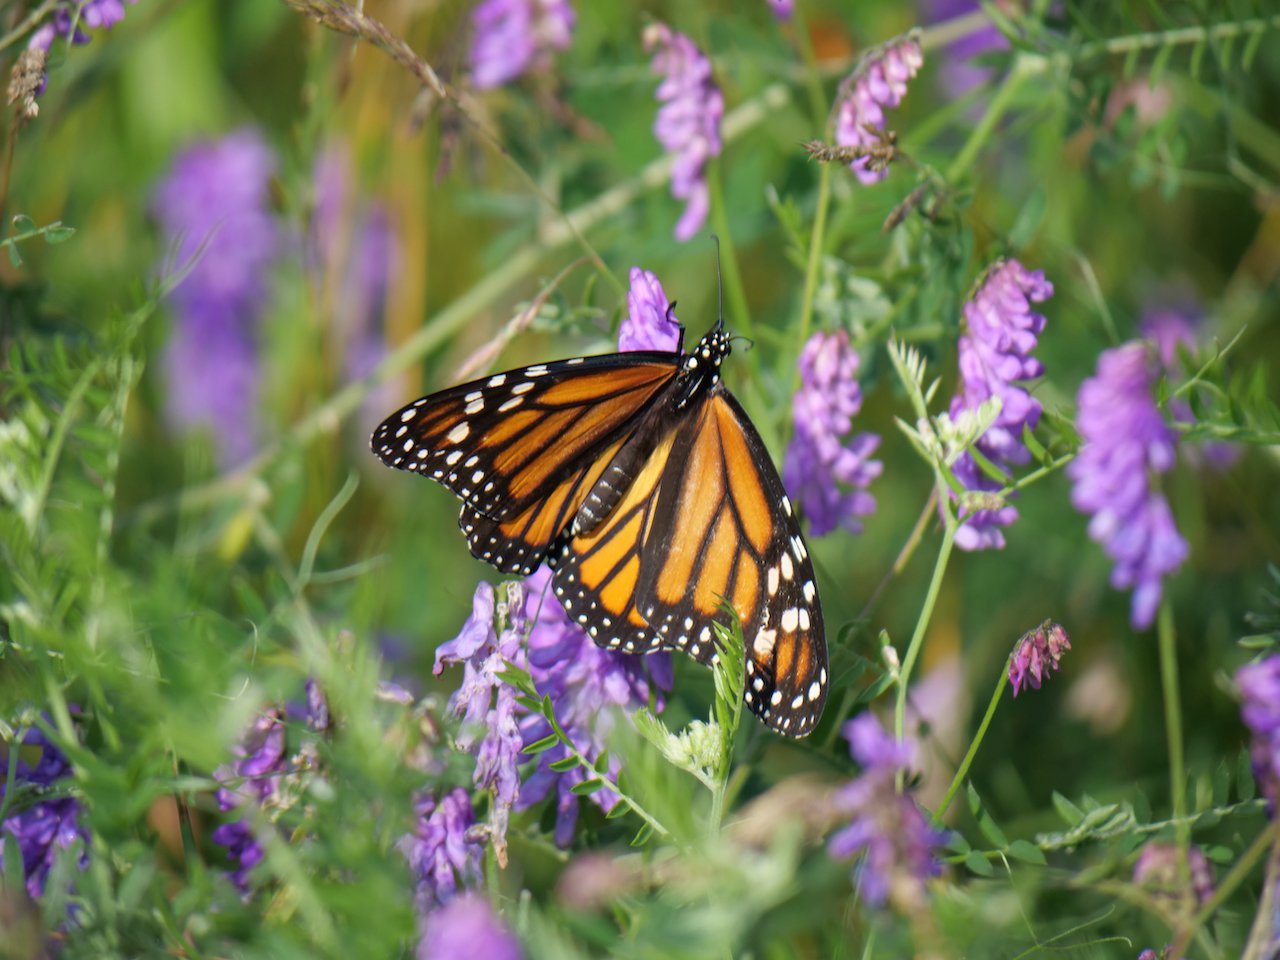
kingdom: Animalia
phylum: Arthropoda
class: Insecta
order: Lepidoptera
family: Nymphalidae
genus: Danaus
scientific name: Danaus plexippus
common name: Monarch
